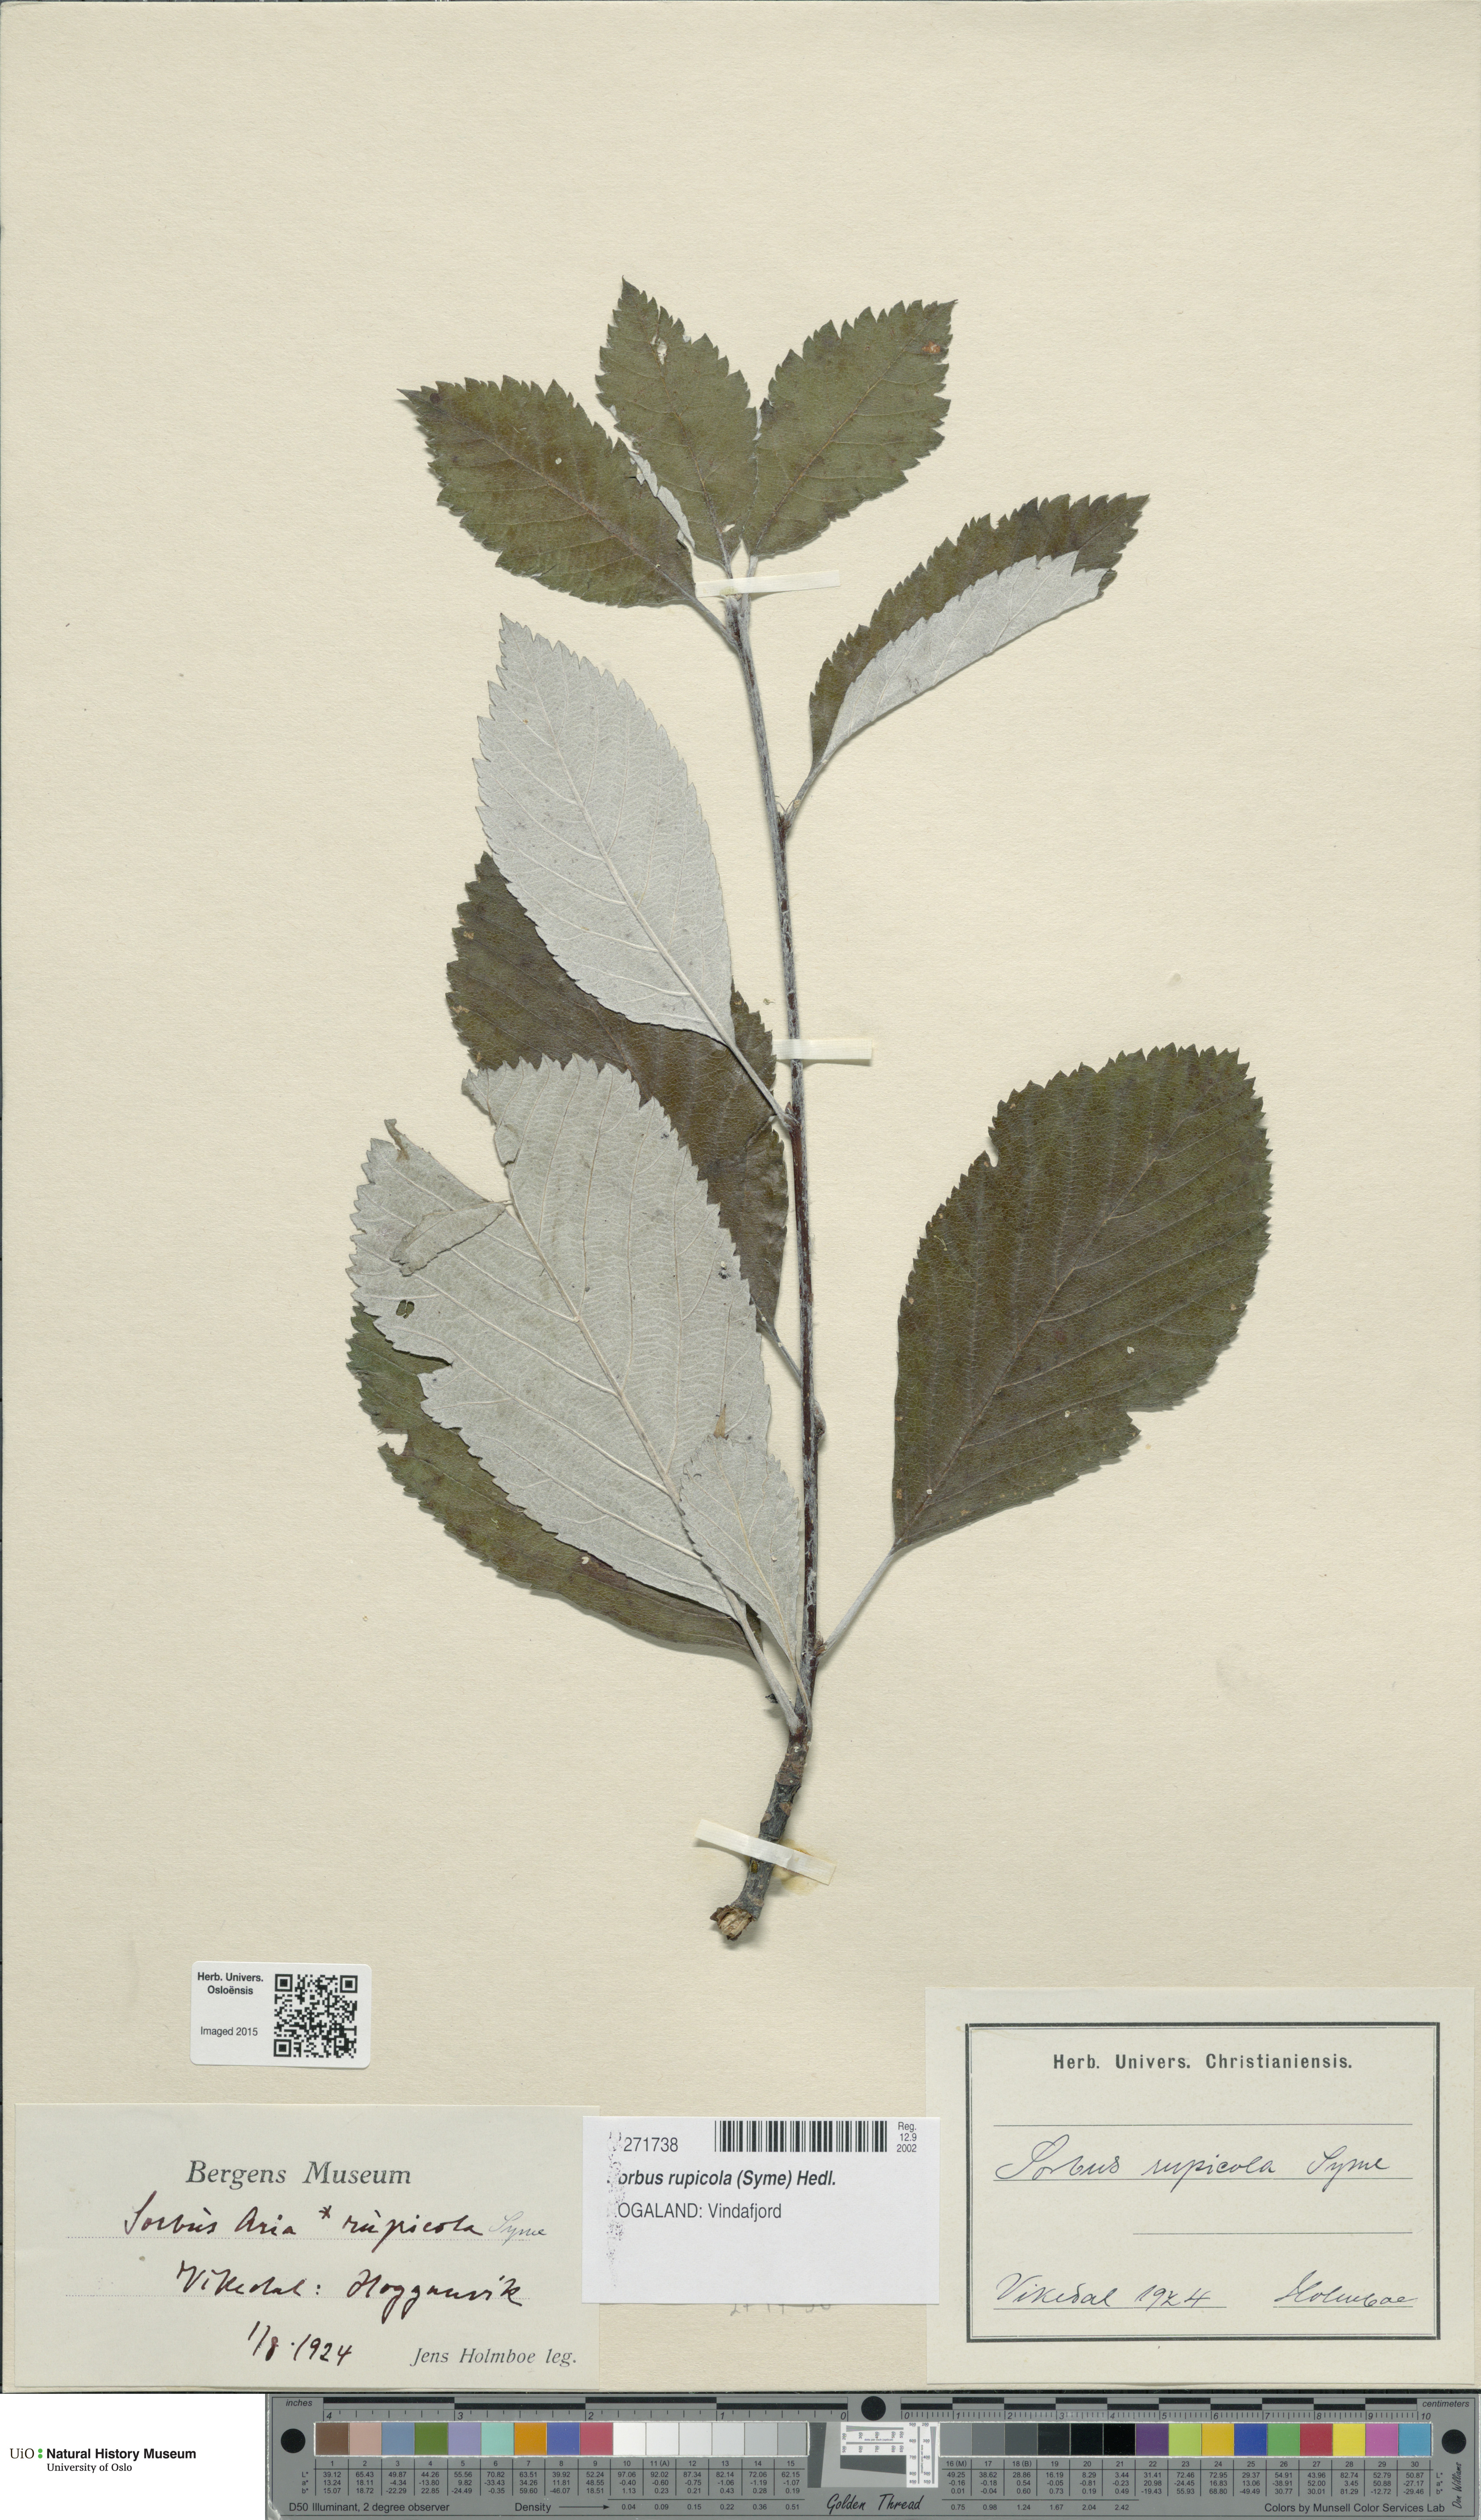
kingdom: Plantae
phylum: Tracheophyta
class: Magnoliopsida
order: Rosales
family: Rosaceae
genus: Aria
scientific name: Aria rupicola
